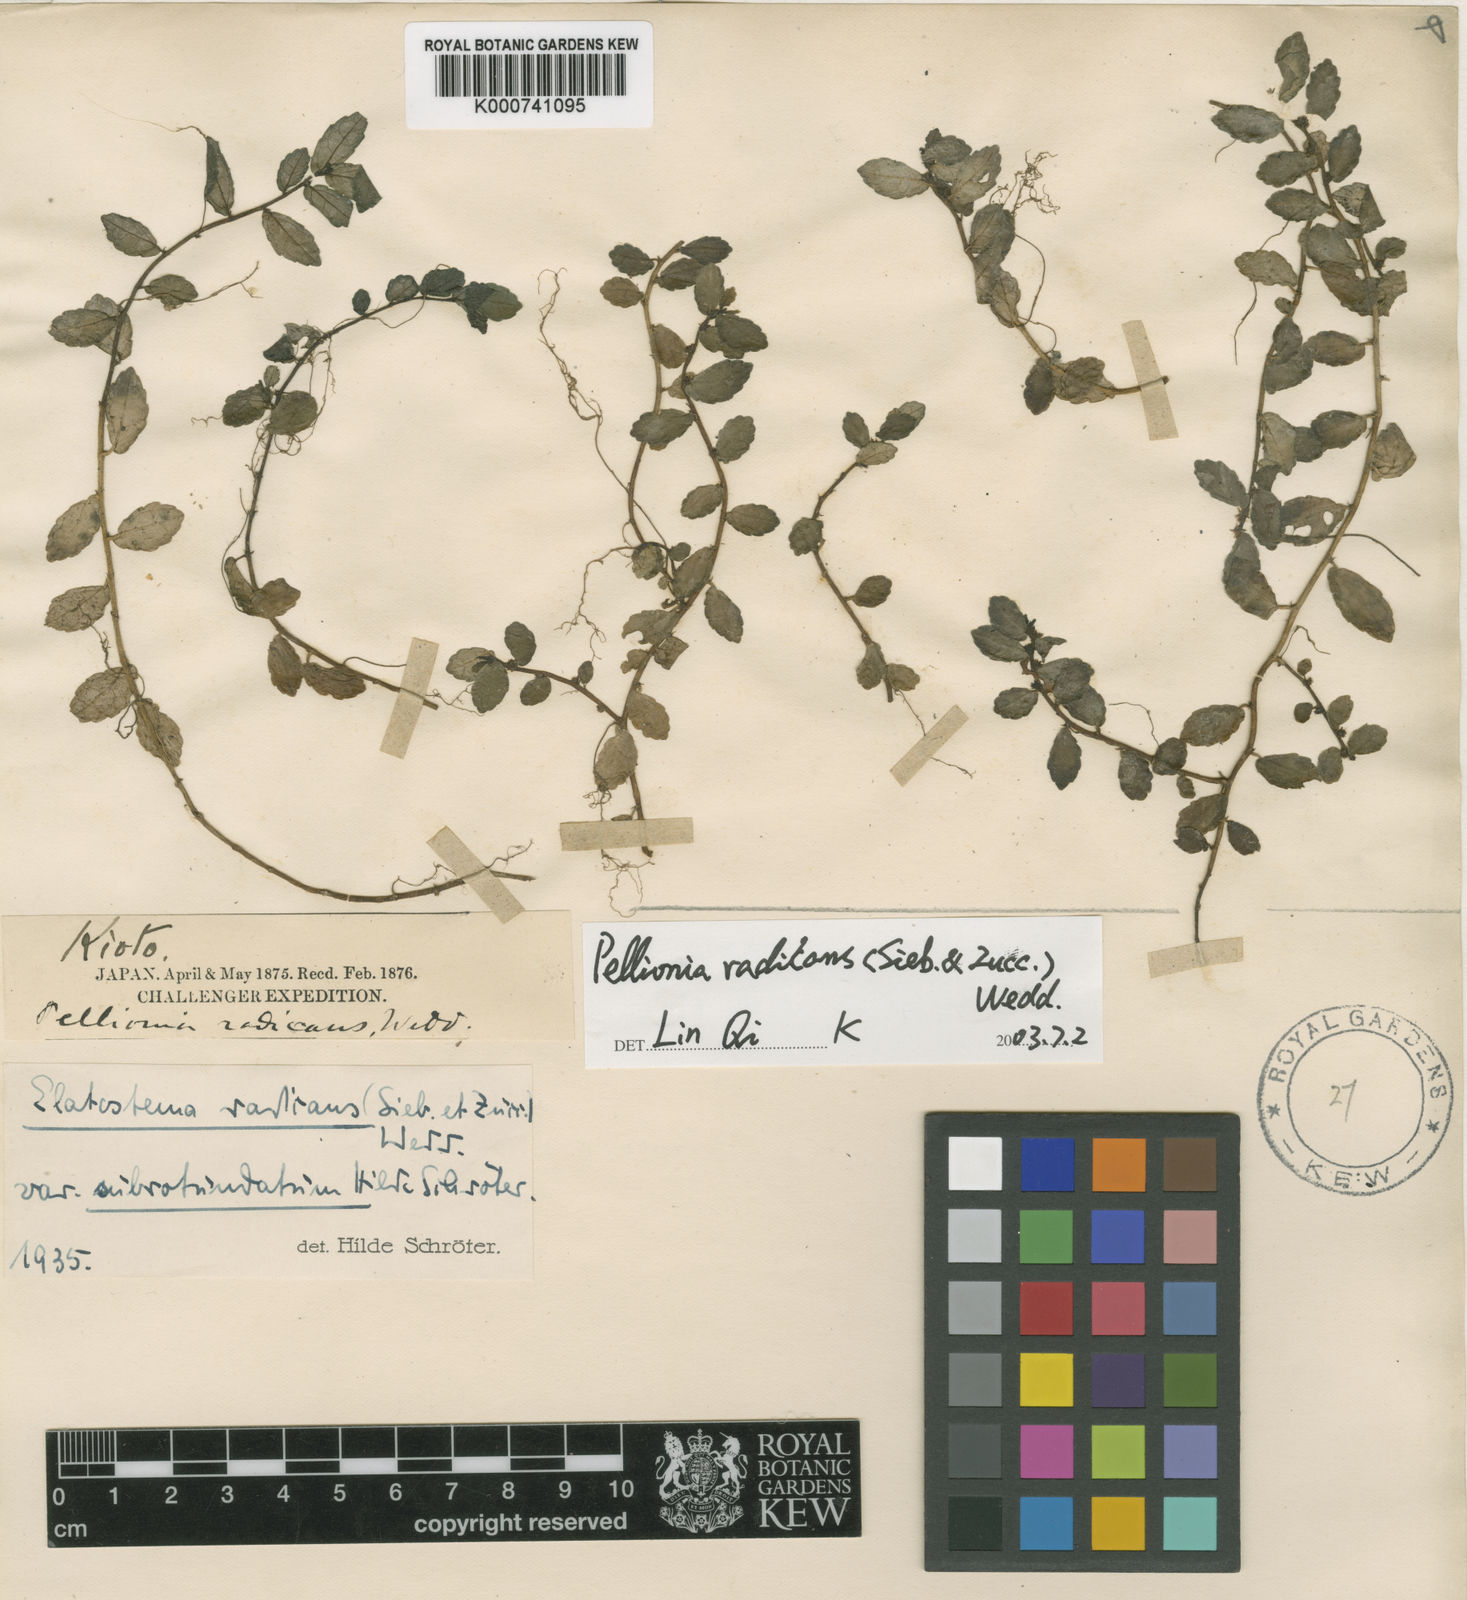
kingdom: Plantae
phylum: Tracheophyta
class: Magnoliopsida
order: Rosales
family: Urticaceae
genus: Elatostema
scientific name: Elatostema radicans
